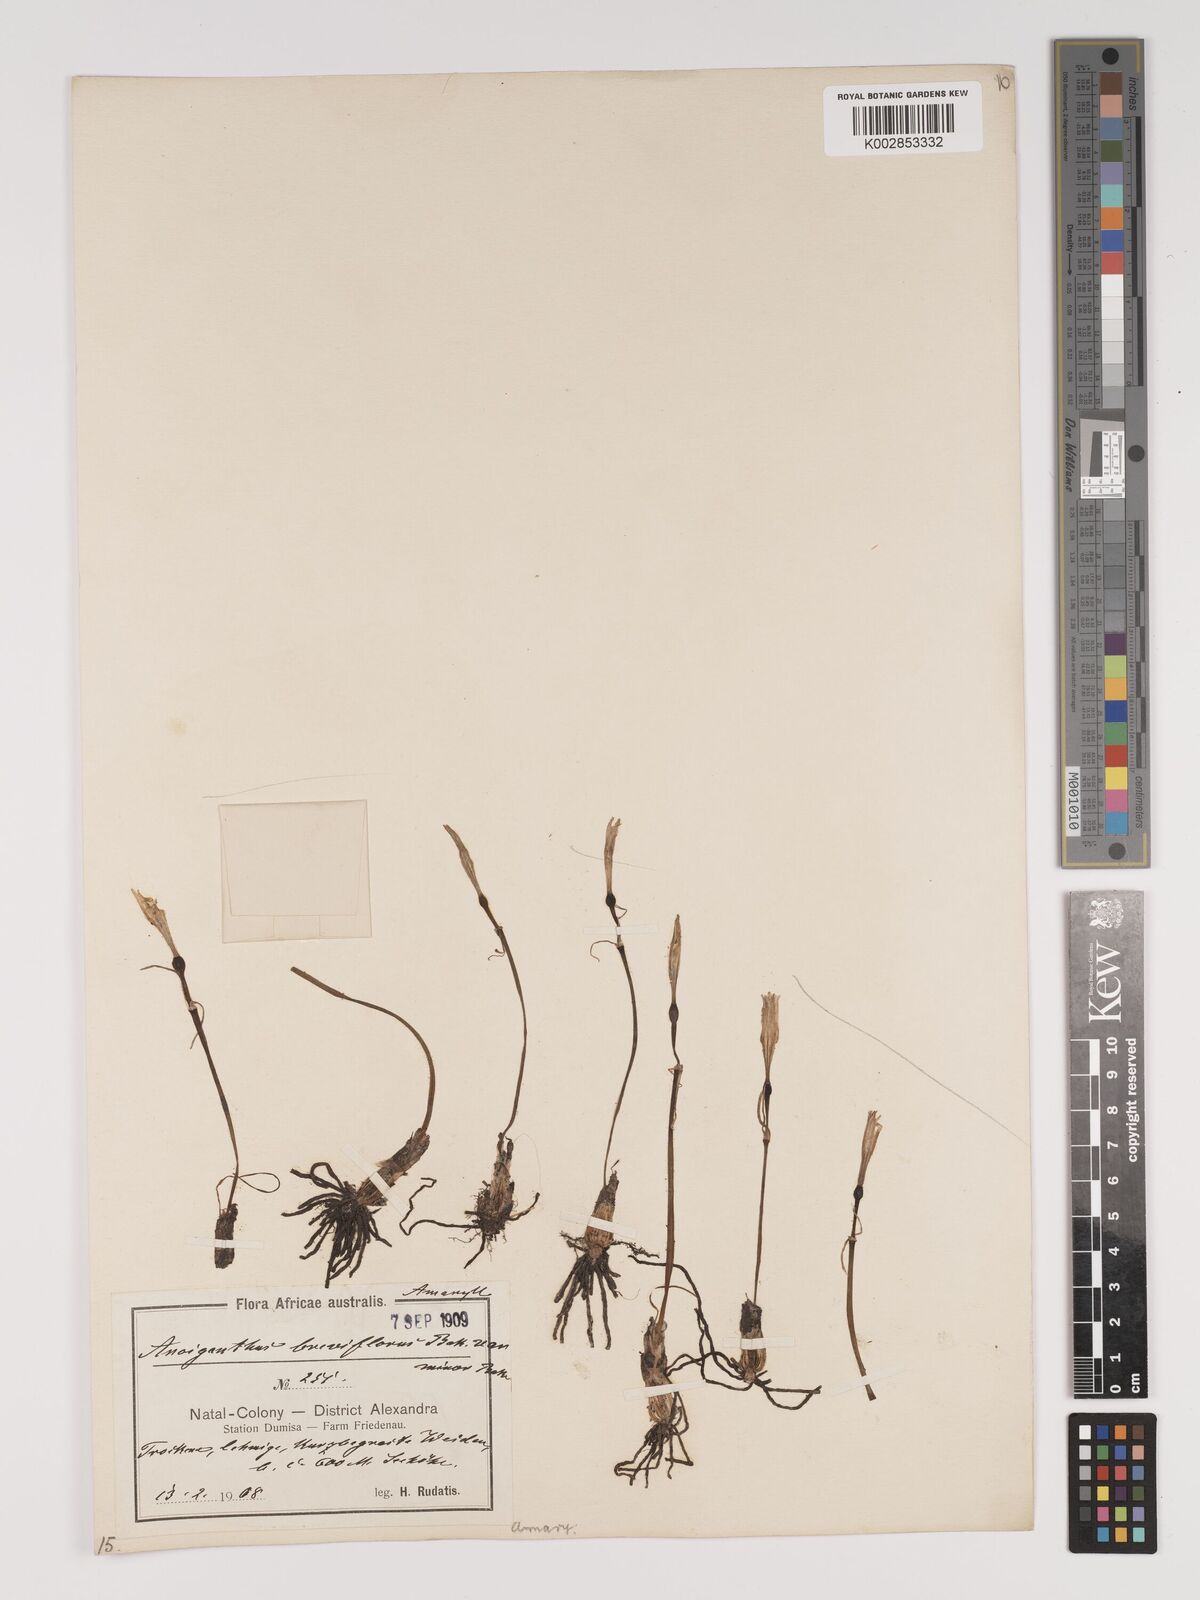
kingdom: Plantae
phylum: Tracheophyta
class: Liliopsida
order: Asparagales
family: Amaryllidaceae
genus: Cyrtanthus
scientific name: Cyrtanthus breviflorus
